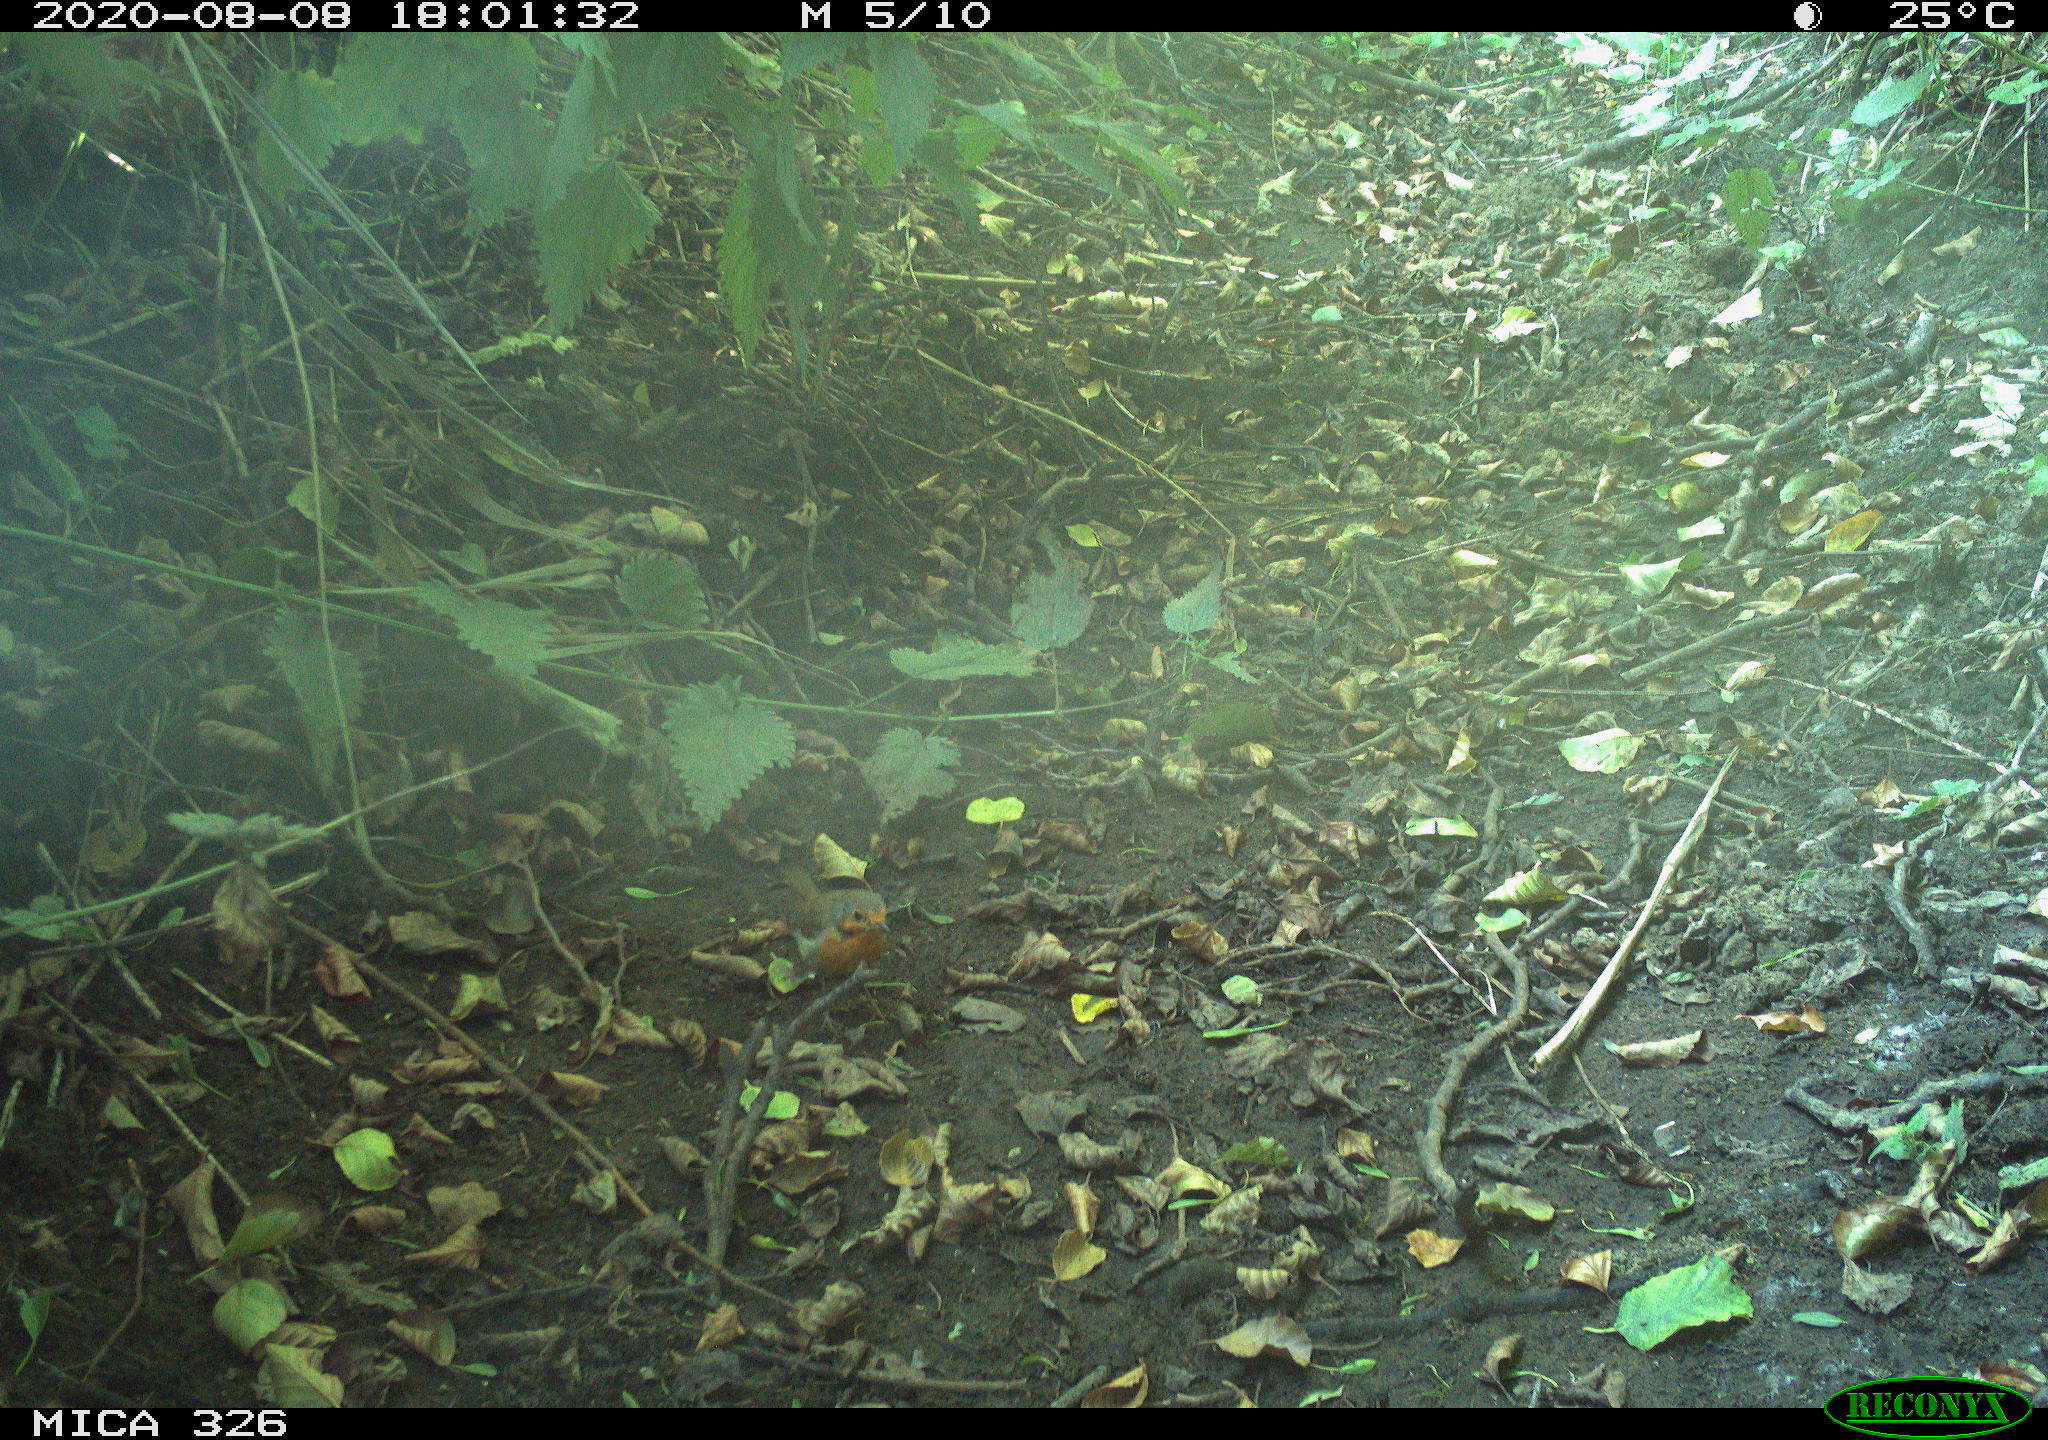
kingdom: Animalia
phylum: Chordata
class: Aves
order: Passeriformes
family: Muscicapidae
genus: Erithacus
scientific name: Erithacus rubecula
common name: European robin
